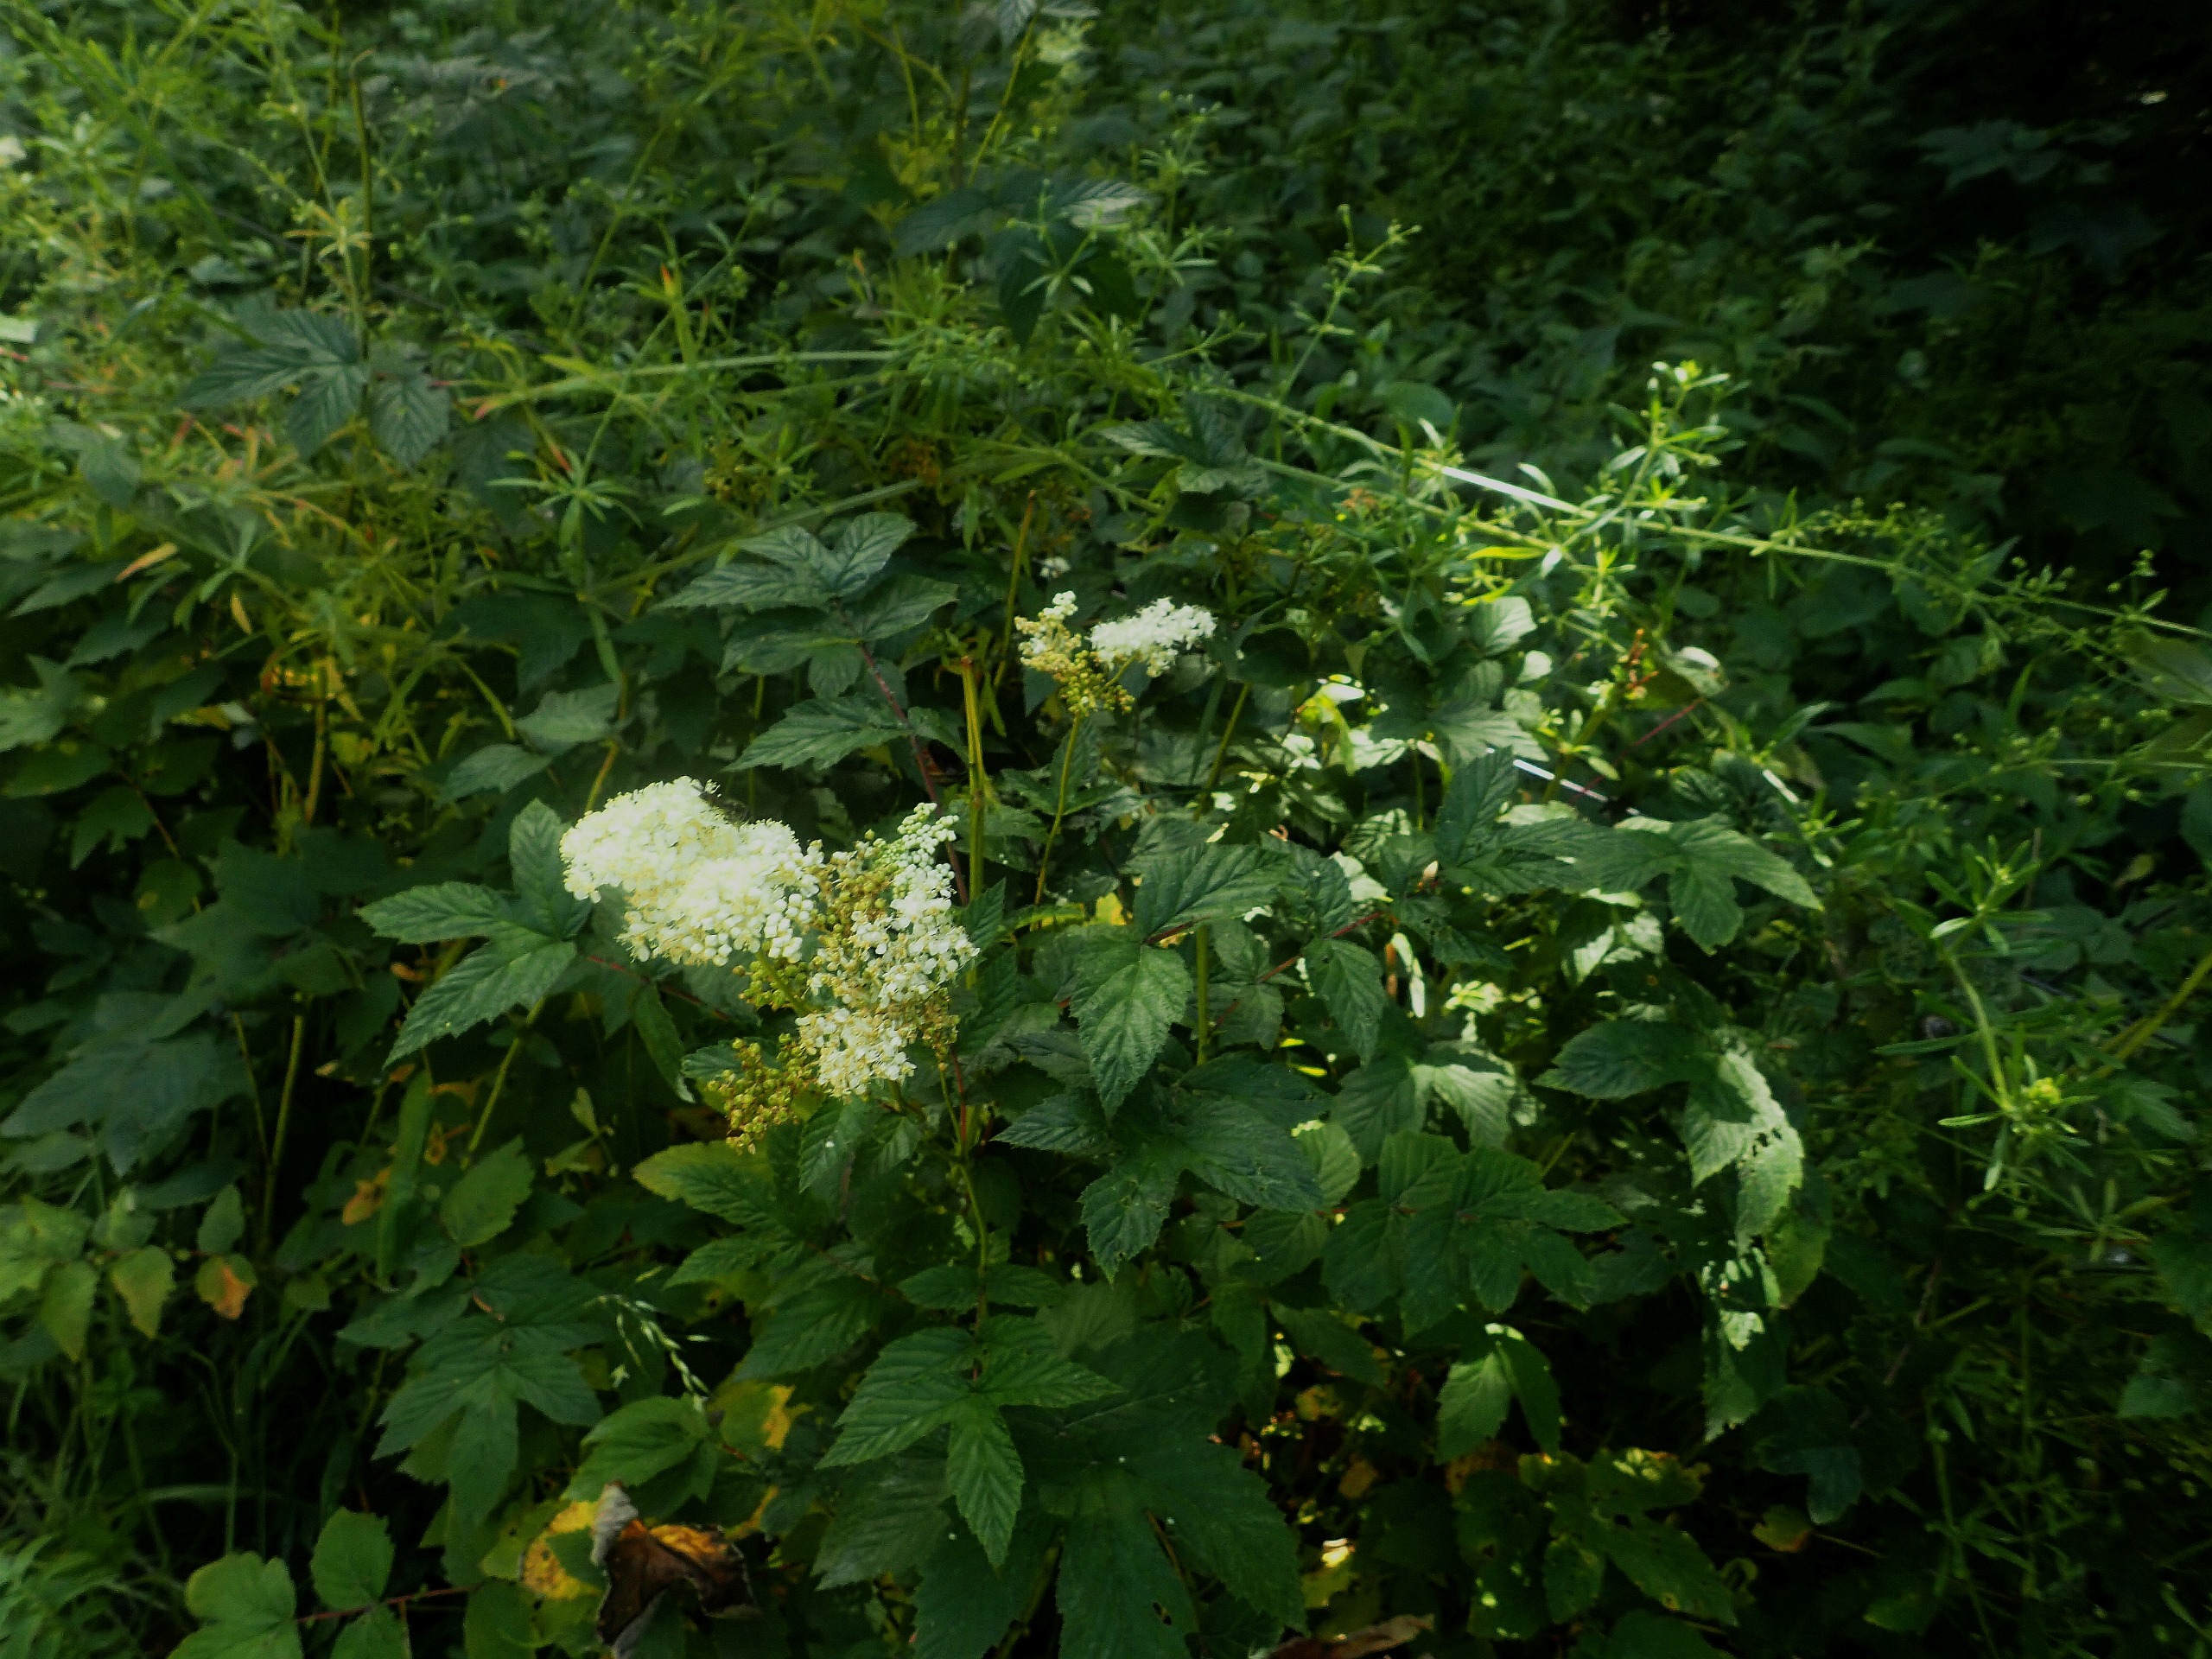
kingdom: Plantae
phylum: Tracheophyta
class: Magnoliopsida
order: Rosales
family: Rosaceae
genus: Filipendula
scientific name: Filipendula ulmaria
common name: Almindelig mjødurt
